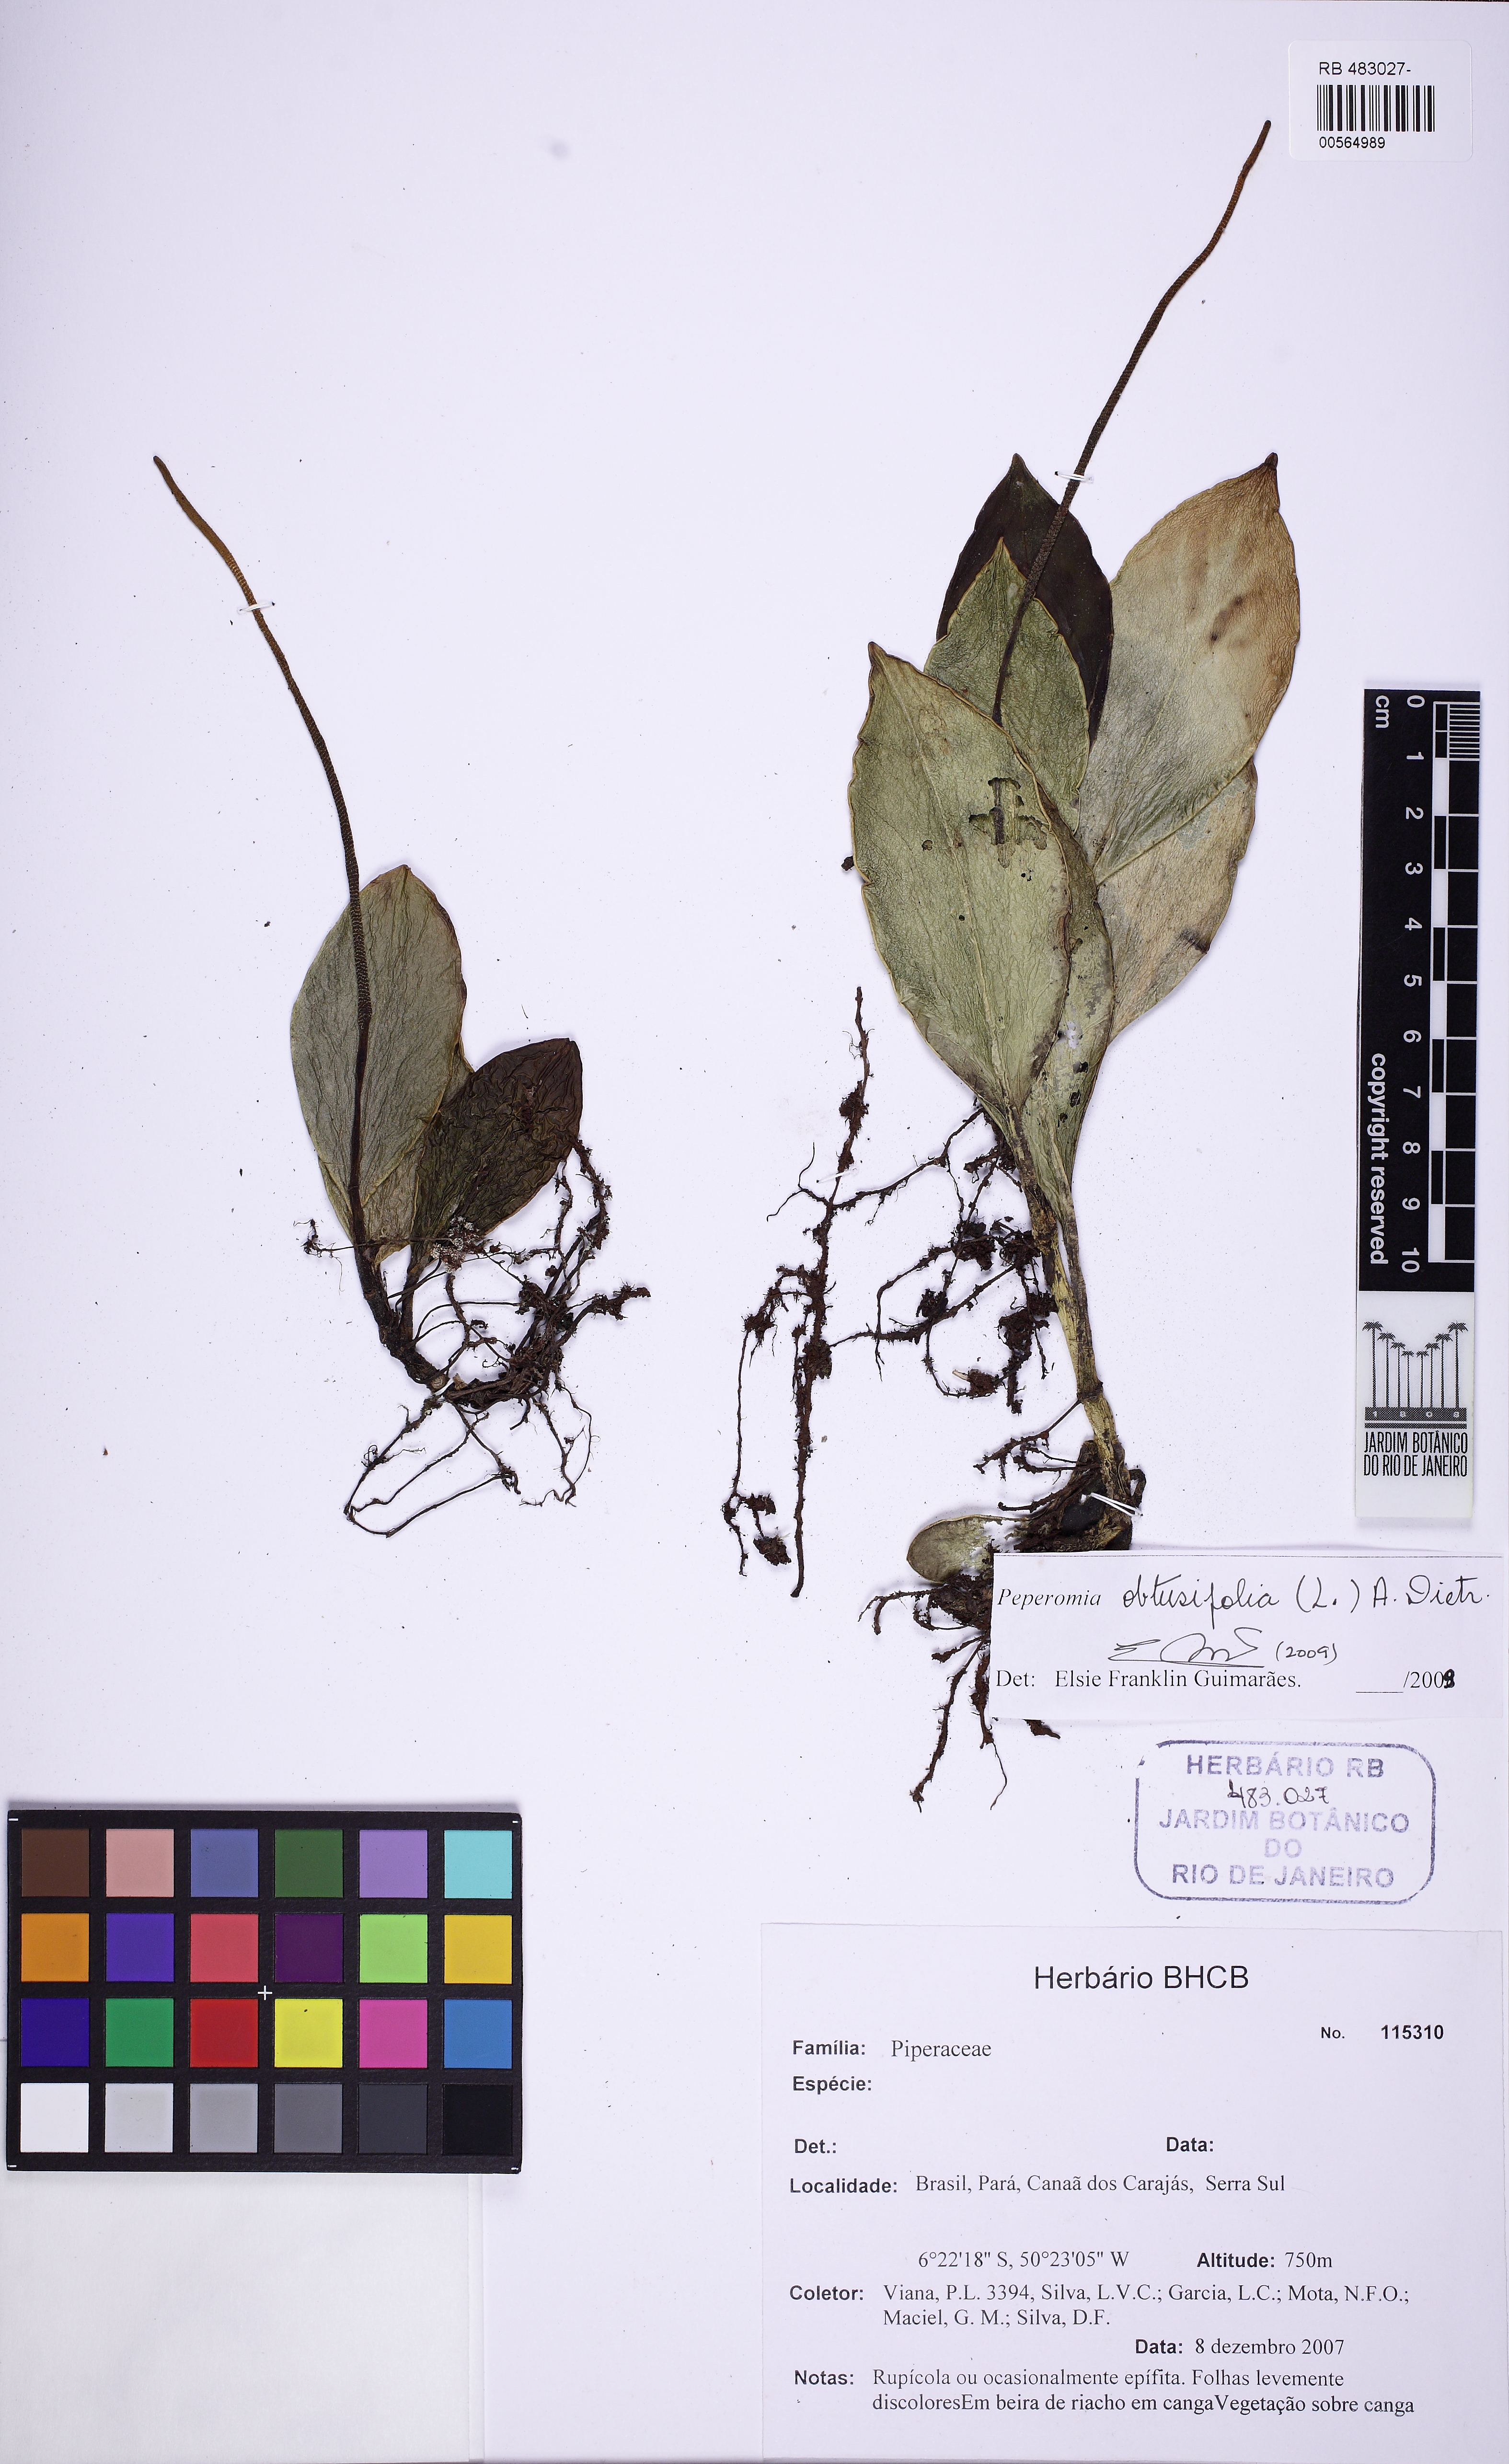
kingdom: Plantae
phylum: Tracheophyta
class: Magnoliopsida
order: Piperales
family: Piperaceae
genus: Peperomia
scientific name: Peperomia uaupesensis
